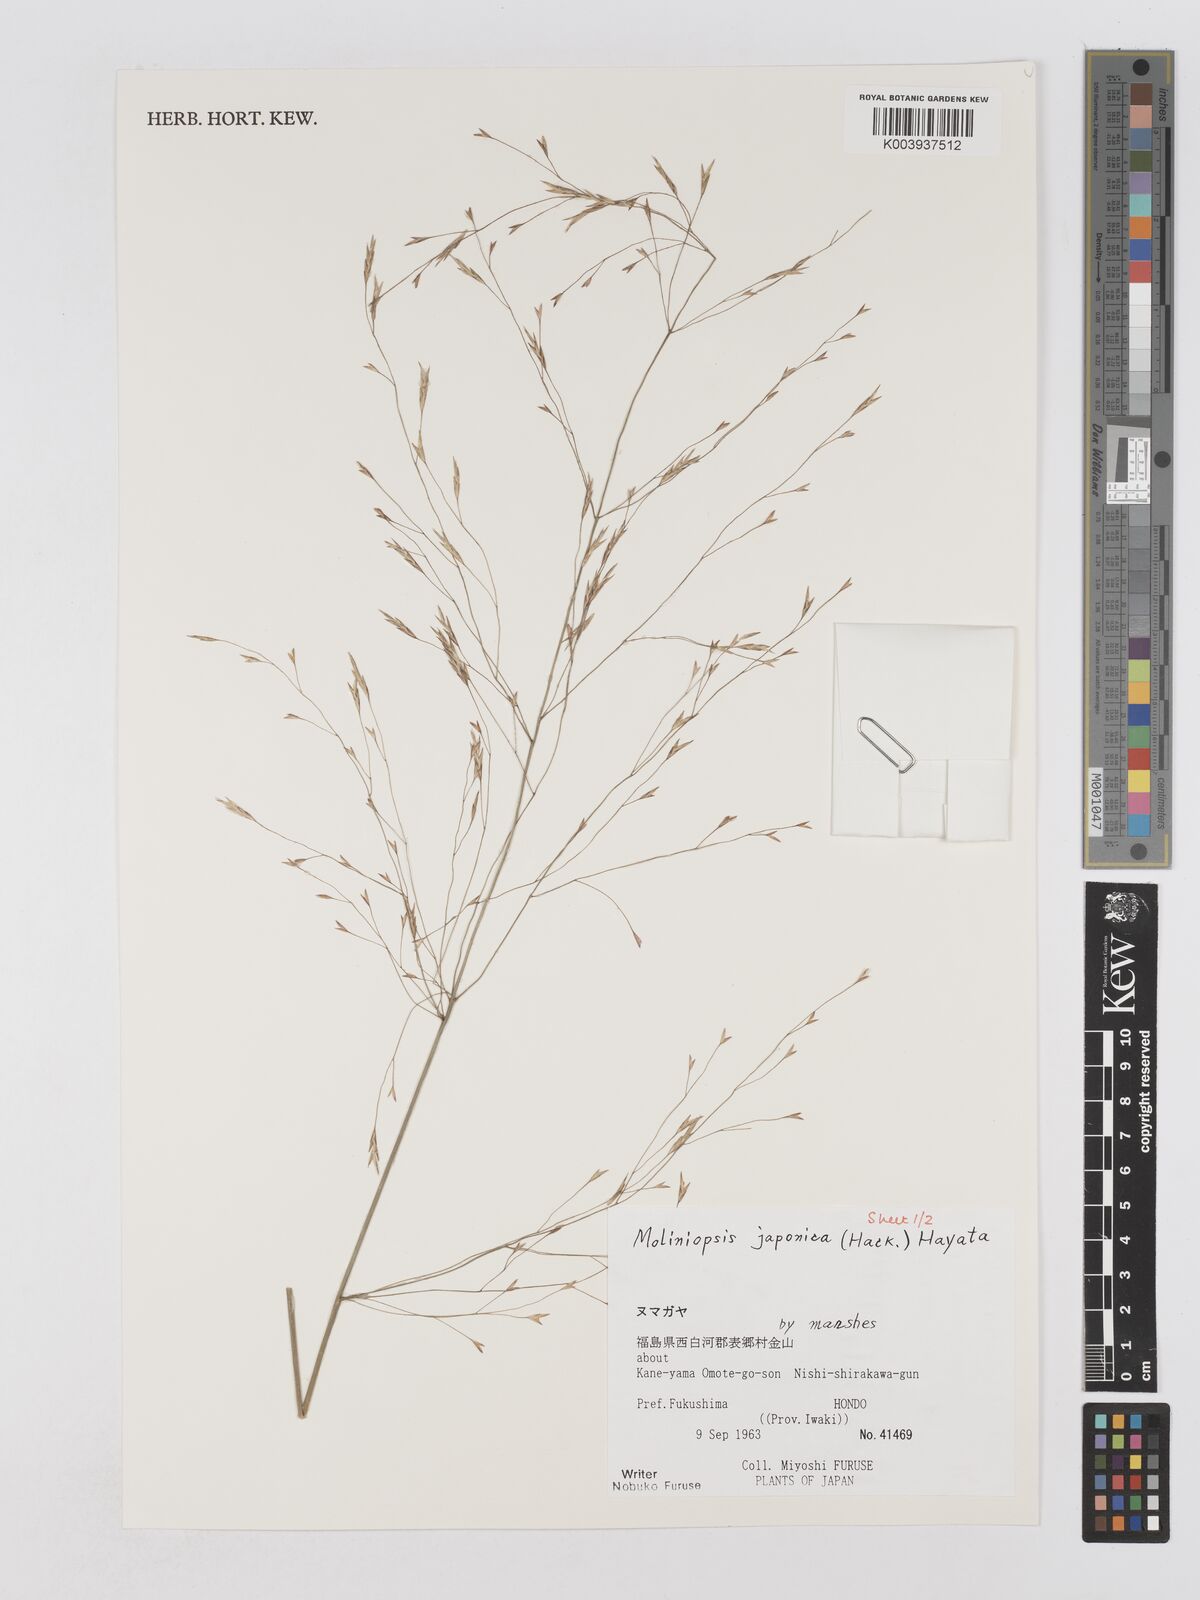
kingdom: Plantae
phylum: Tracheophyta
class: Liliopsida
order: Poales
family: Poaceae
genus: Moliniopsis
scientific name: Moliniopsis japonica
